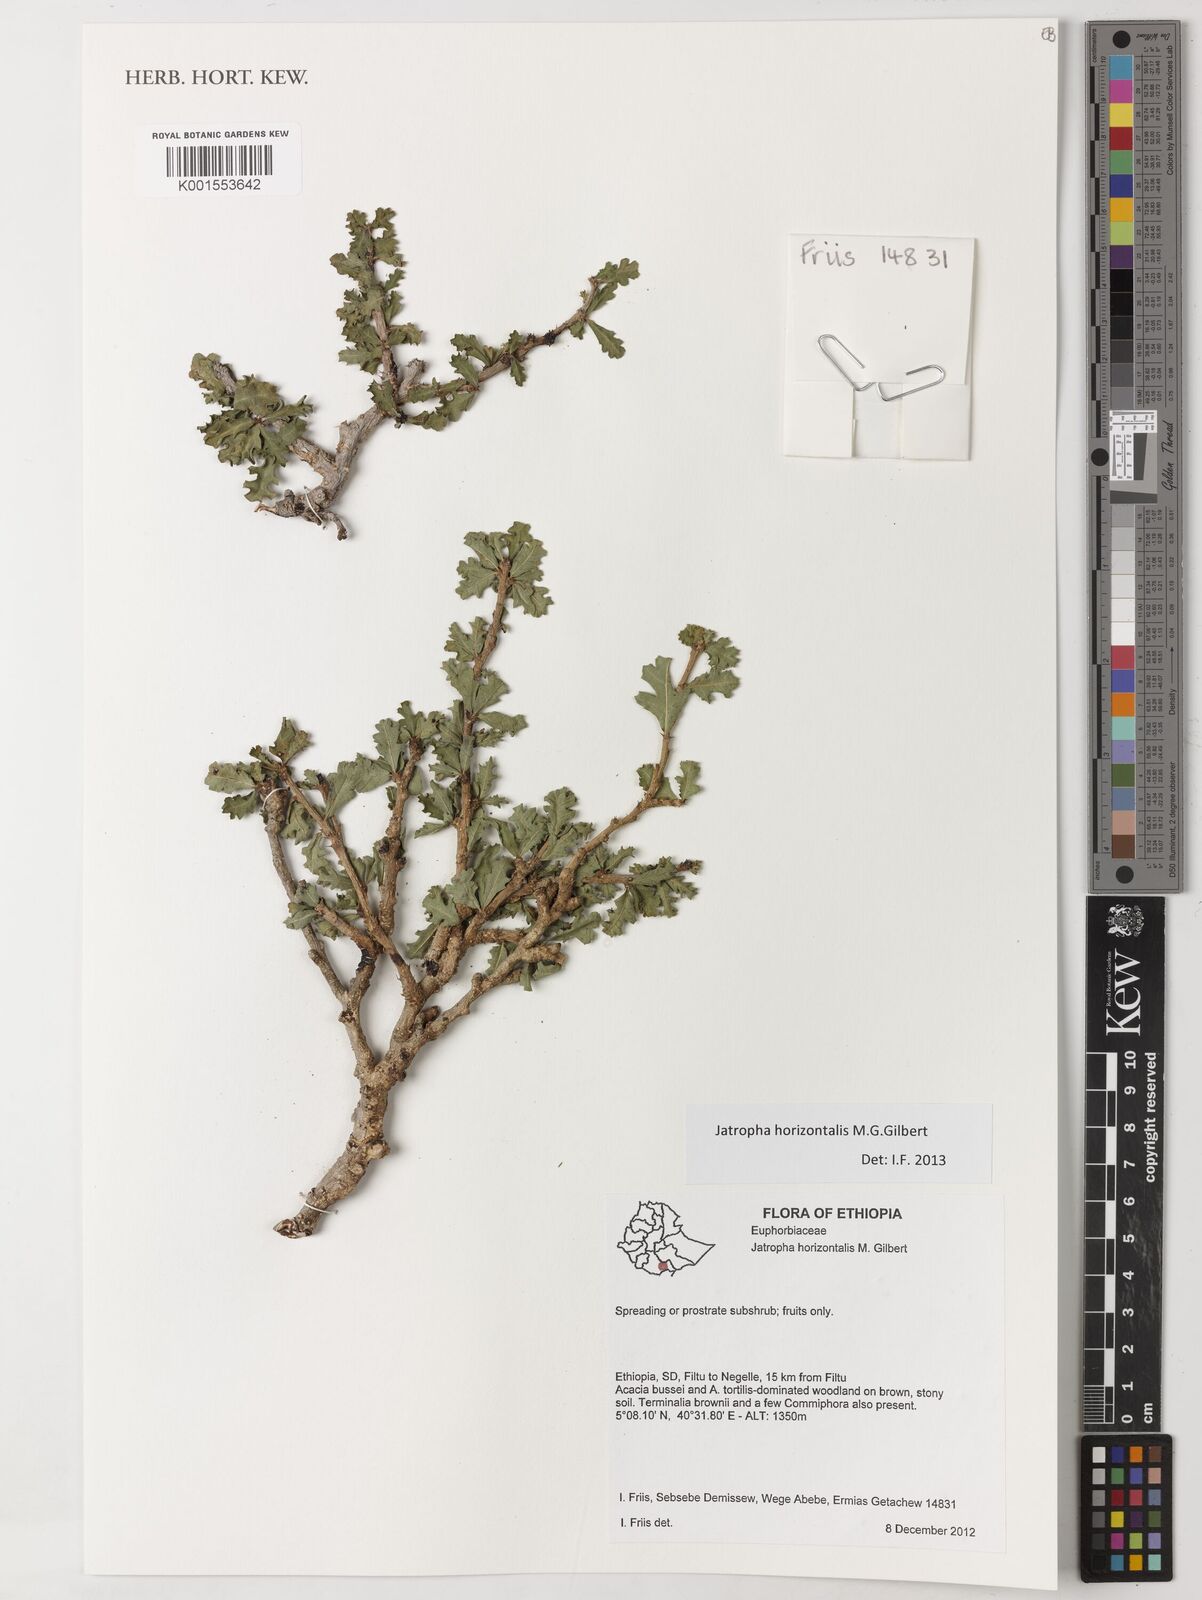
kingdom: Plantae
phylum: Tracheophyta
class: Magnoliopsida
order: Malpighiales
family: Euphorbiaceae
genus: Jatropha
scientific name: Jatropha horizontalis
